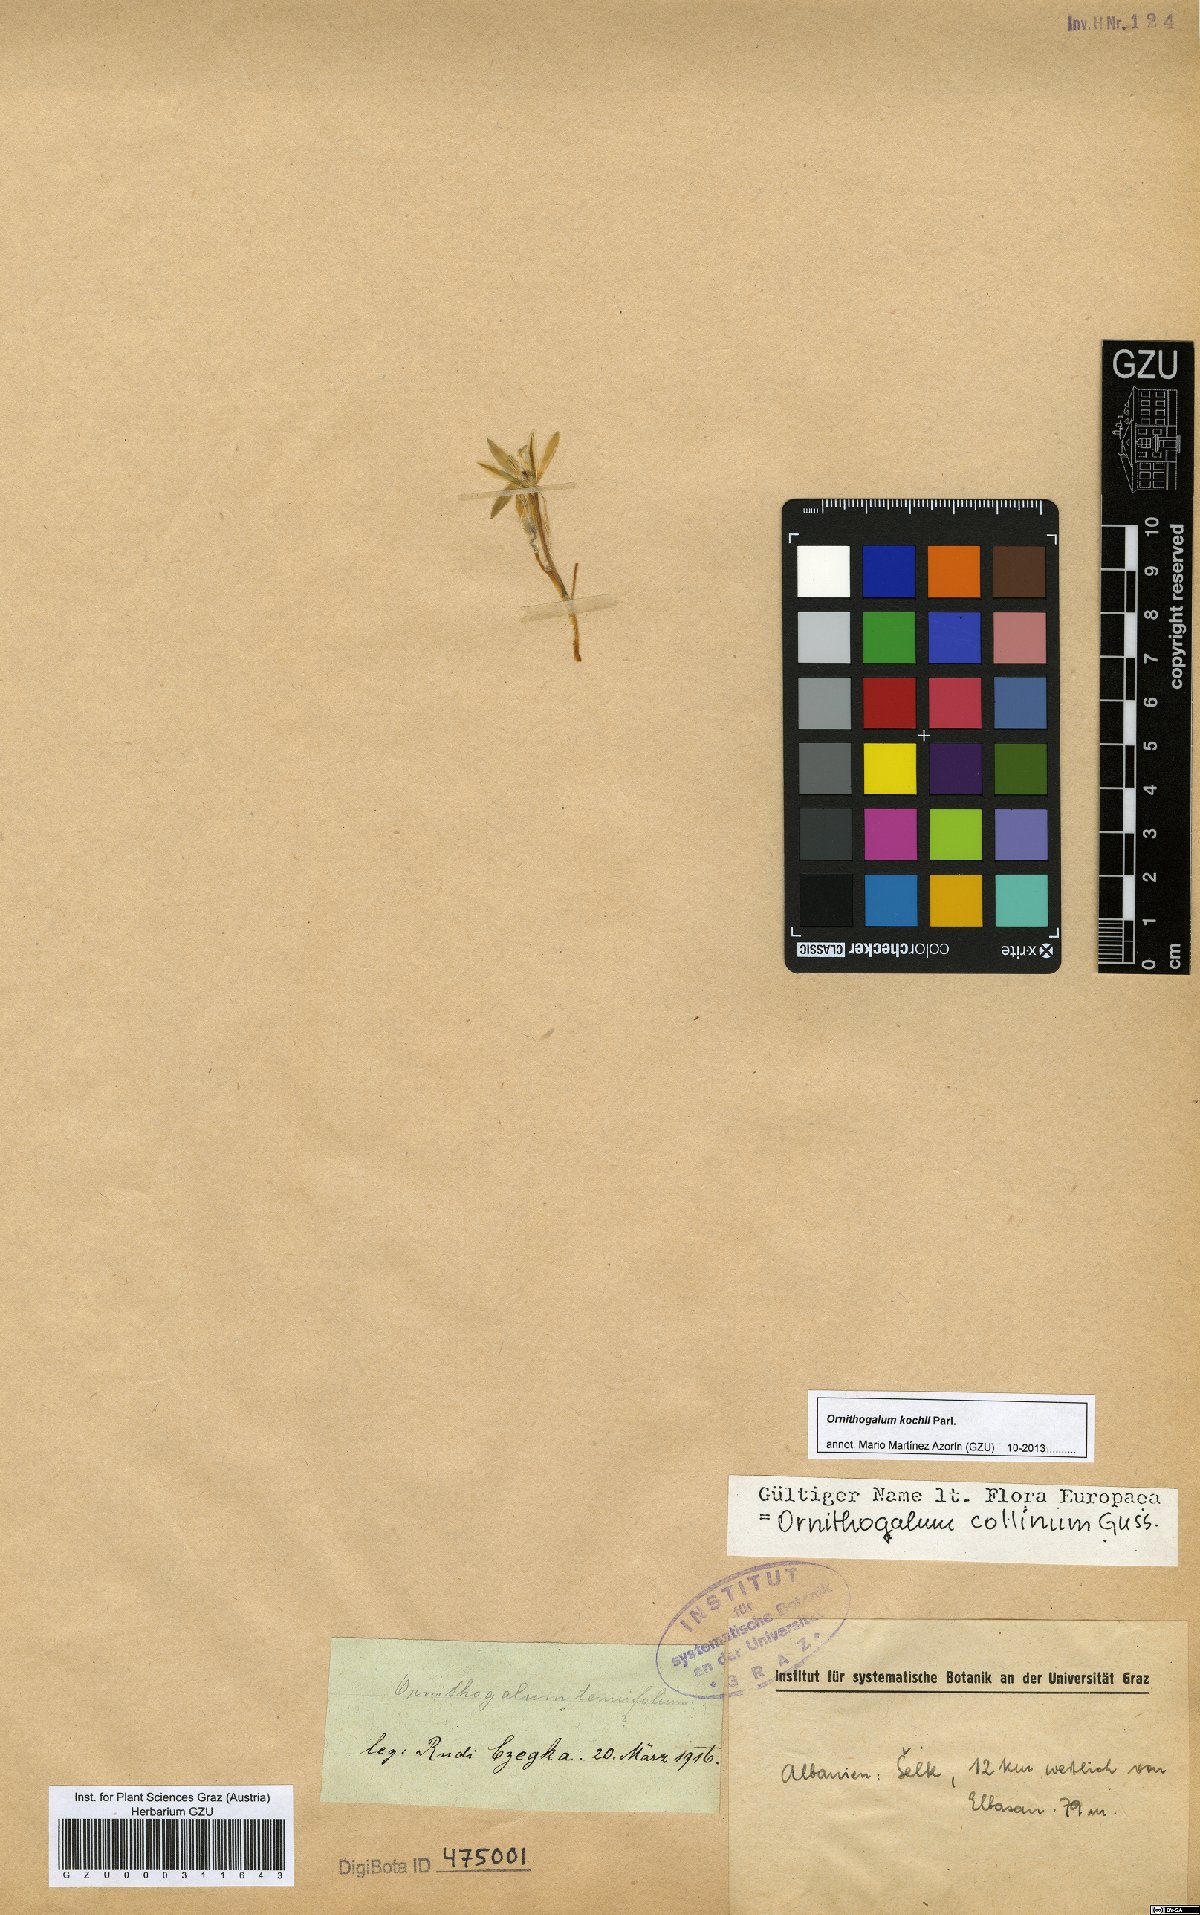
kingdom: Plantae
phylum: Tracheophyta
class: Liliopsida
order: Asparagales
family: Asparagaceae
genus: Ornithogalum
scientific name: Ornithogalum orthophyllum
